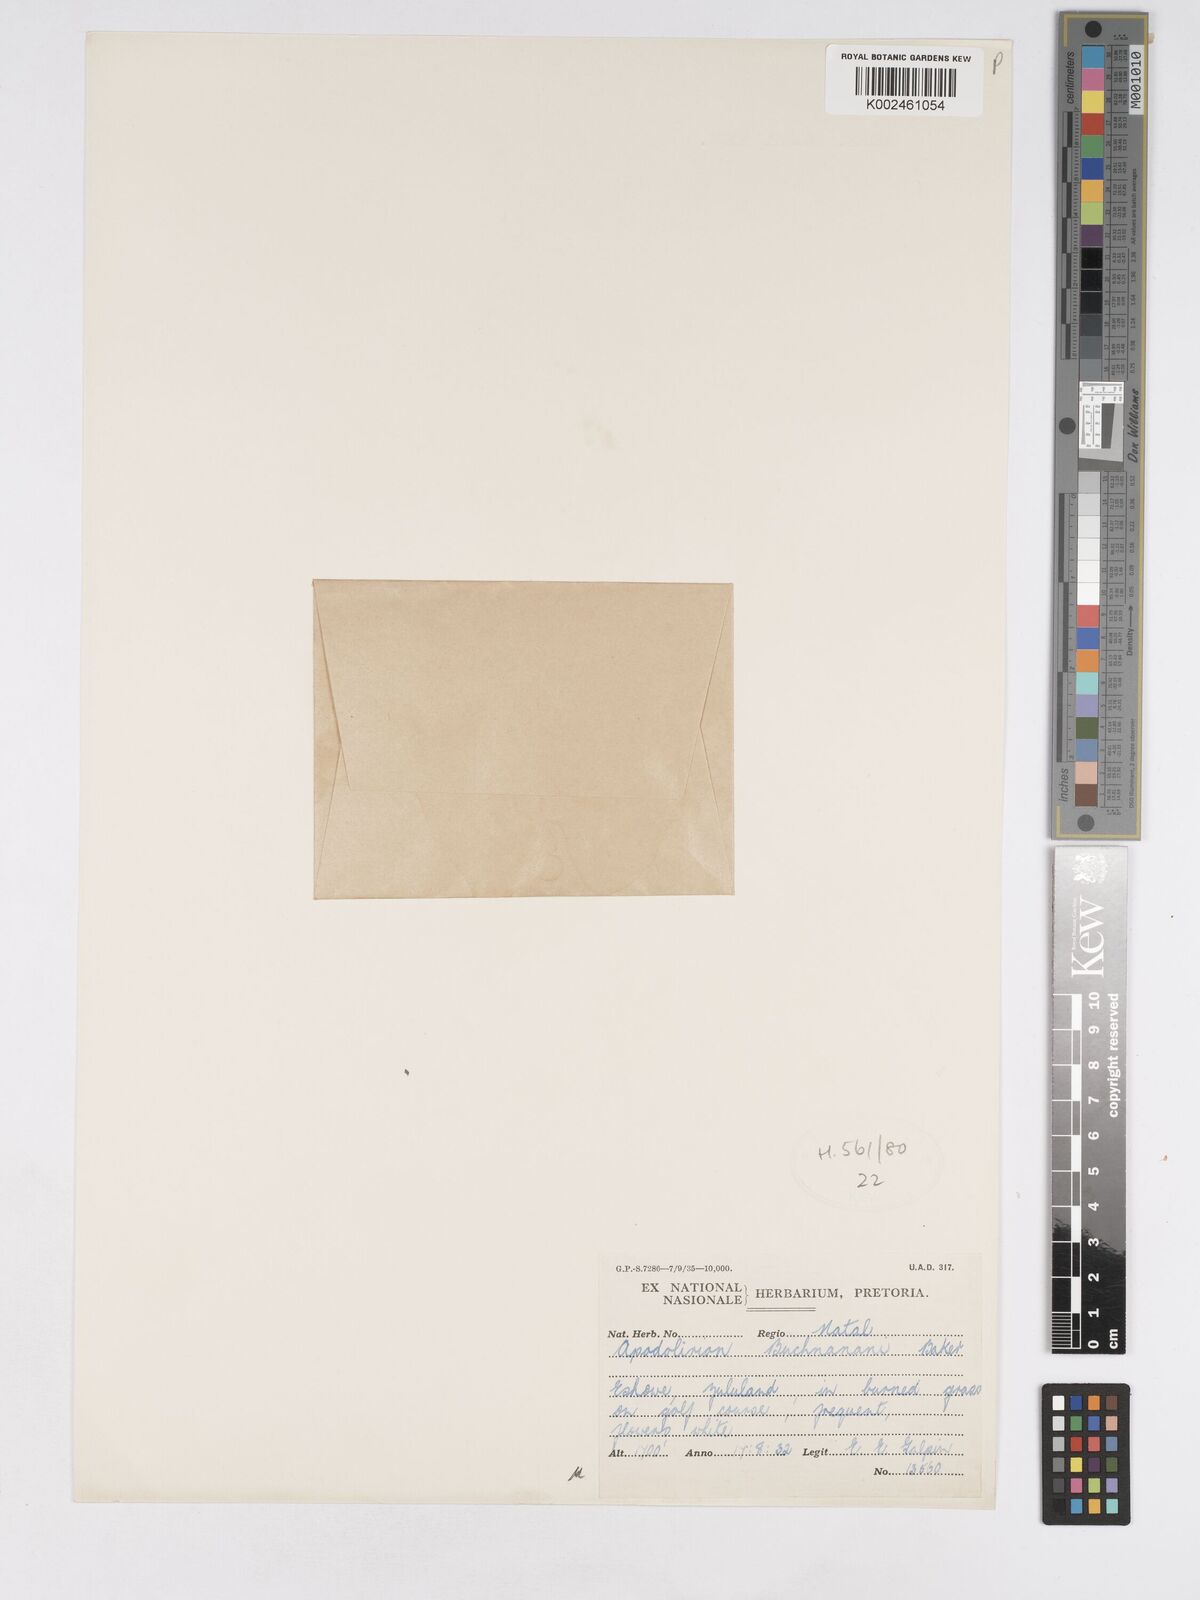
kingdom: Plantae
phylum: Tracheophyta
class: Liliopsida
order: Asparagales
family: Amaryllidaceae
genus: Apodolirion
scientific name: Apodolirion buchananii
